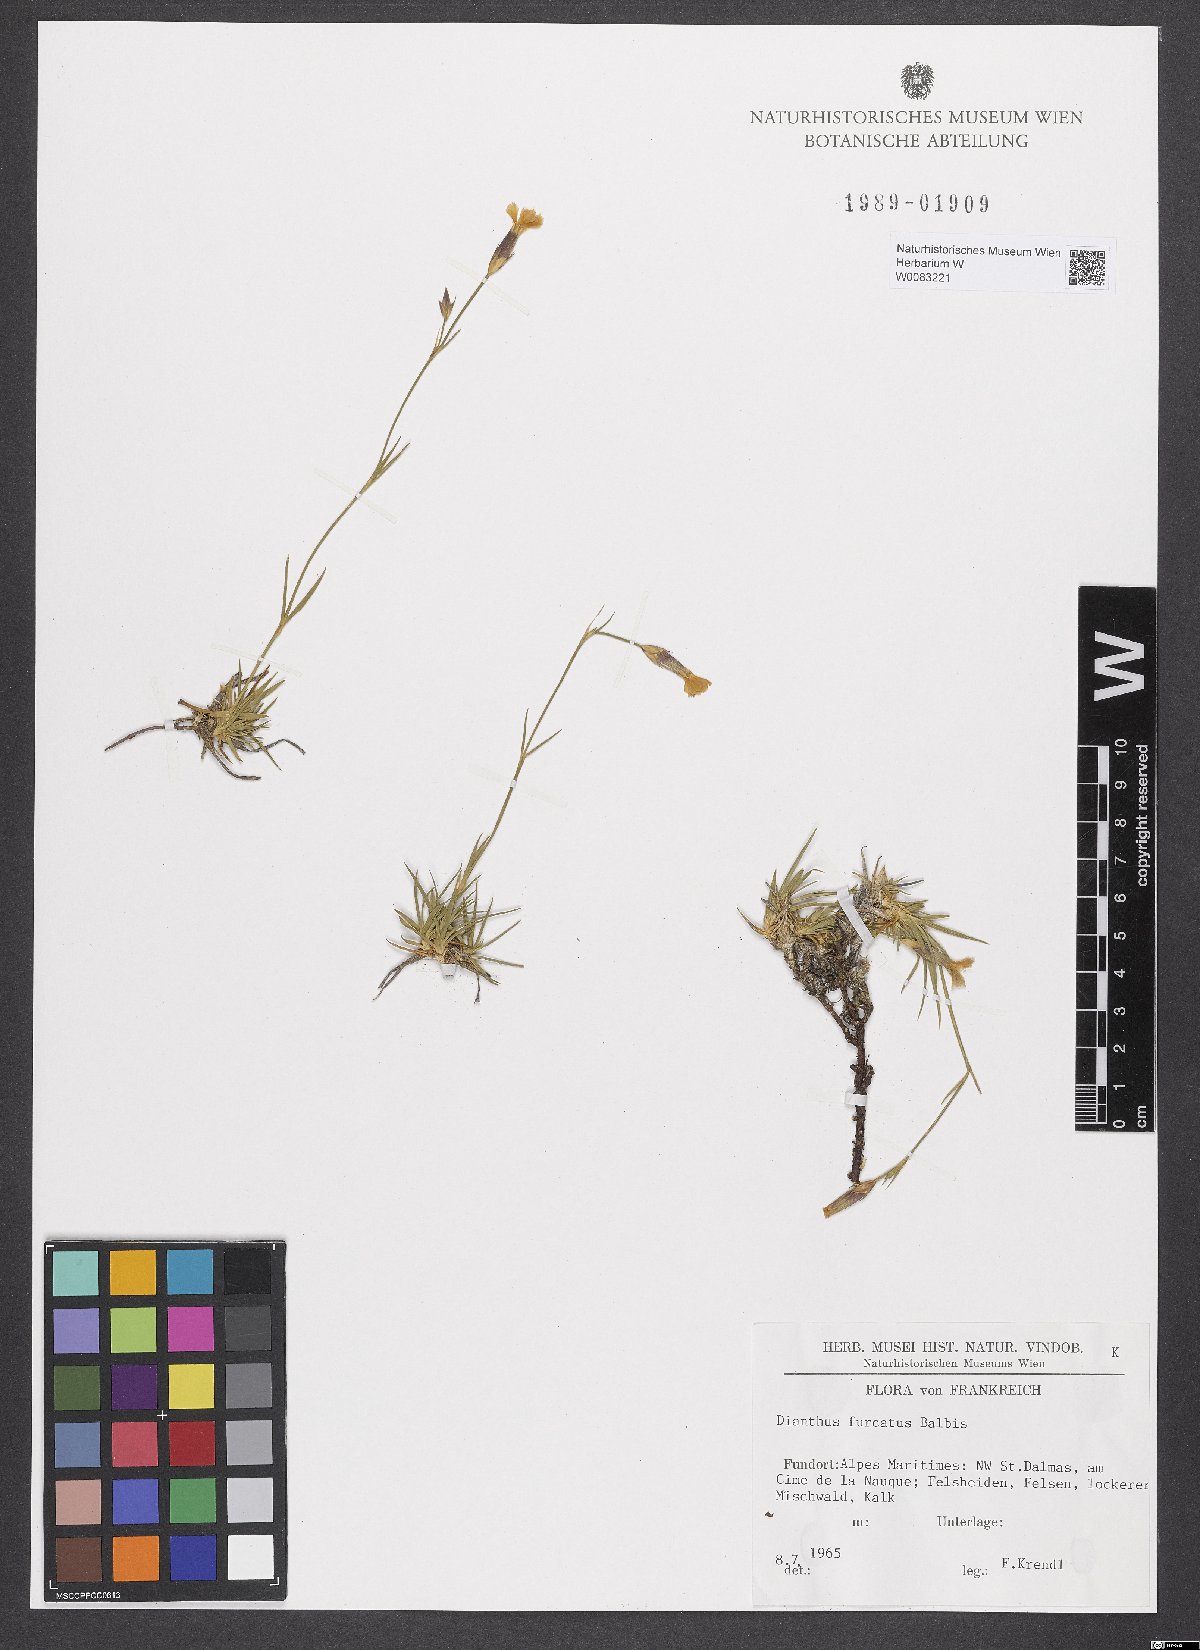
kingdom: Plantae
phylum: Tracheophyta
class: Magnoliopsida
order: Caryophyllales
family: Caryophyllaceae
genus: Dianthus
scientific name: Dianthus furcatus
